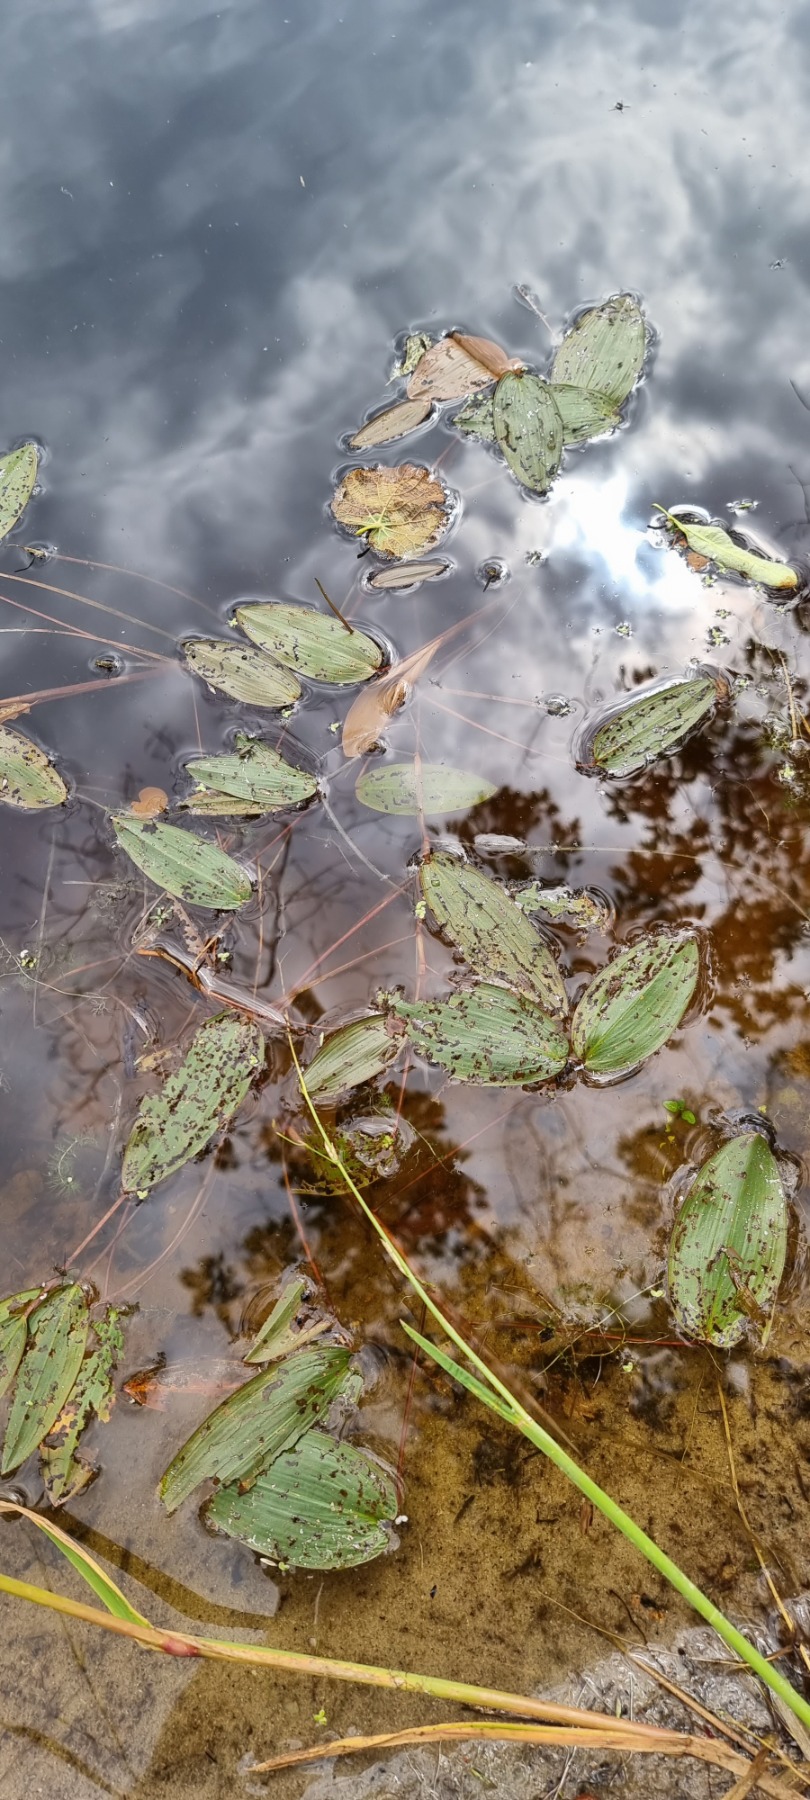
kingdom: Plantae
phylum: Tracheophyta
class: Liliopsida
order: Alismatales
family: Potamogetonaceae
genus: Potamogeton
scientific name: Potamogeton
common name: Vandaks (Potamogeton-slægten)
